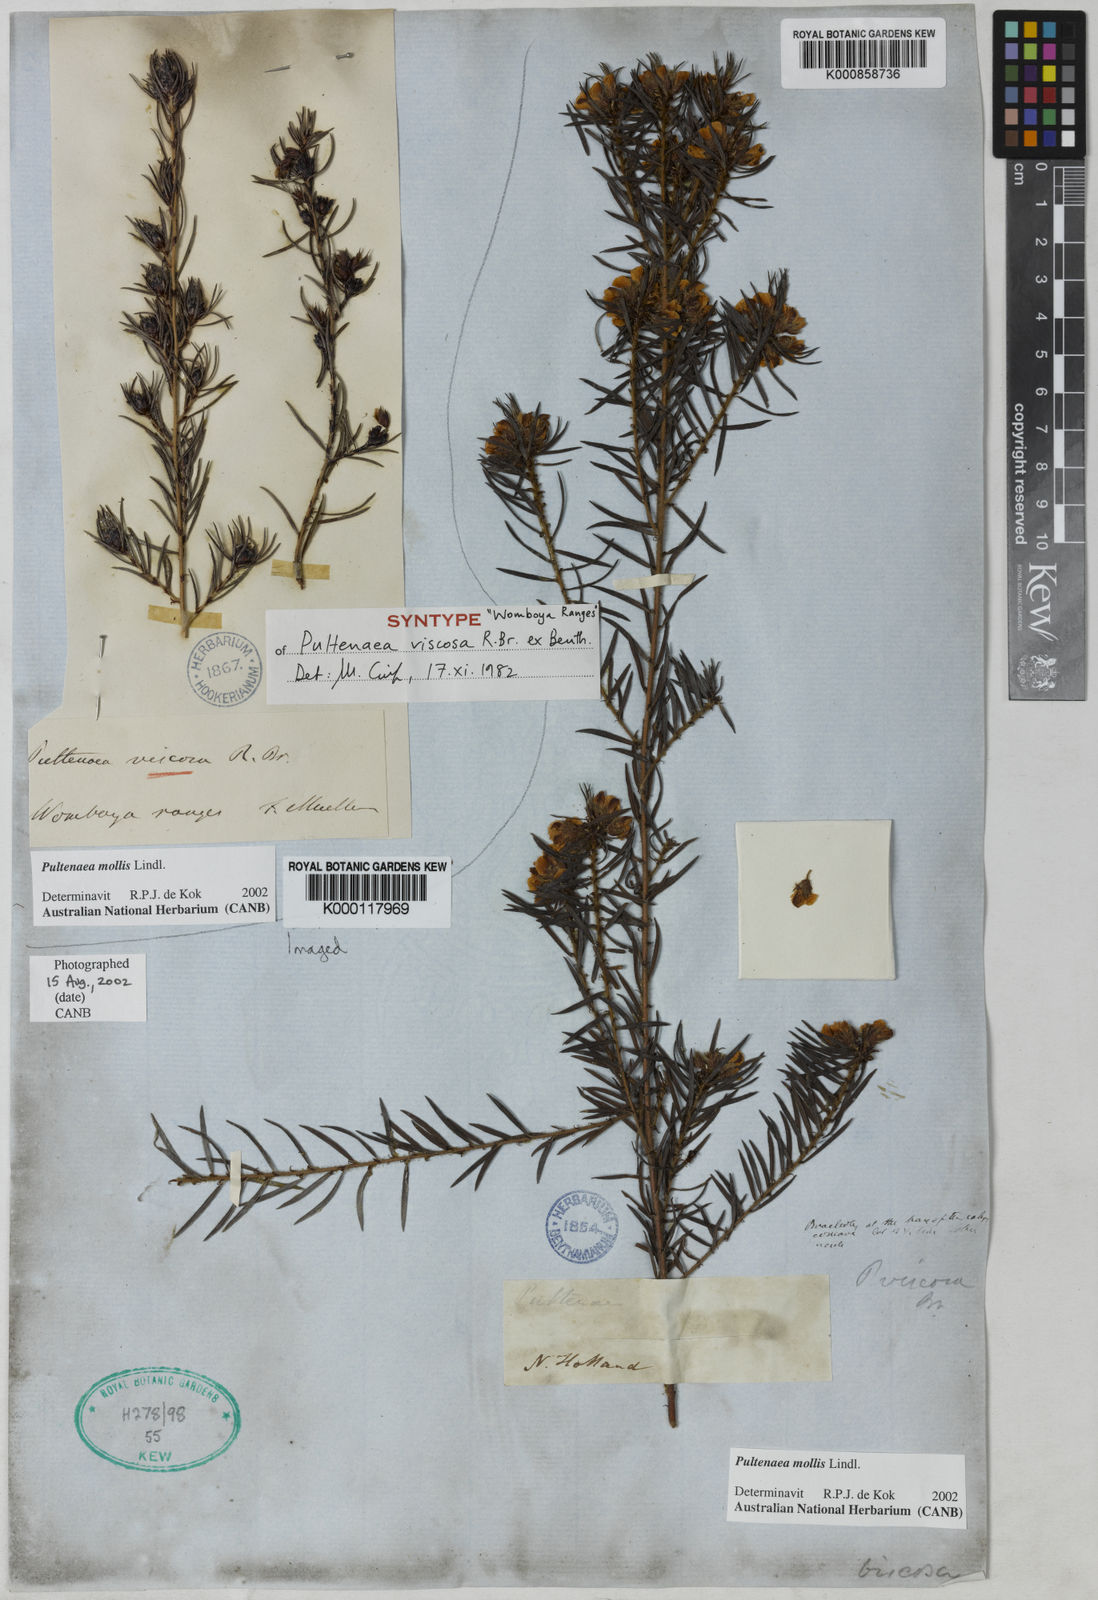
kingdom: Plantae
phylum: Tracheophyta
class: Magnoliopsida
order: Fabales
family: Fabaceae
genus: Pultenaea
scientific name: Pultenaea mollis
